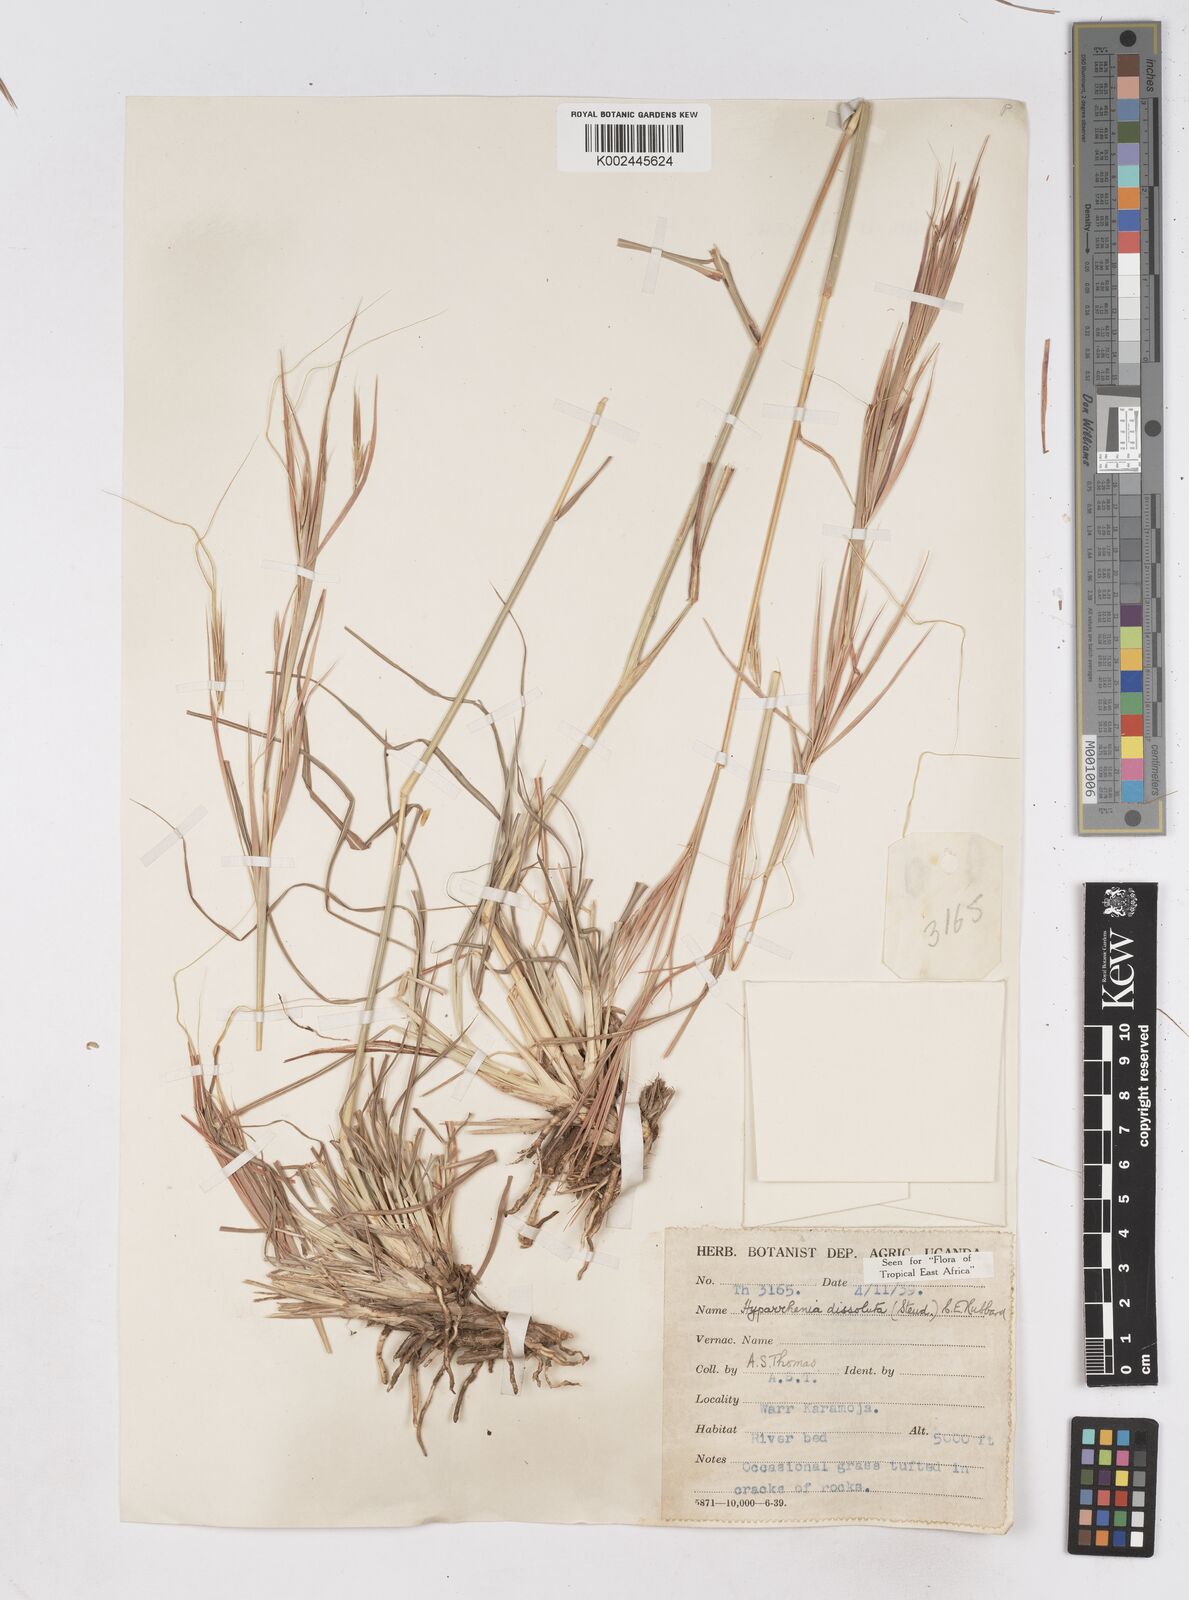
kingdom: Plantae
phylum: Tracheophyta
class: Liliopsida
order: Poales
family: Poaceae
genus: Hyperthelia
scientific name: Hyperthelia dissoluta
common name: Yellow thatching grass
